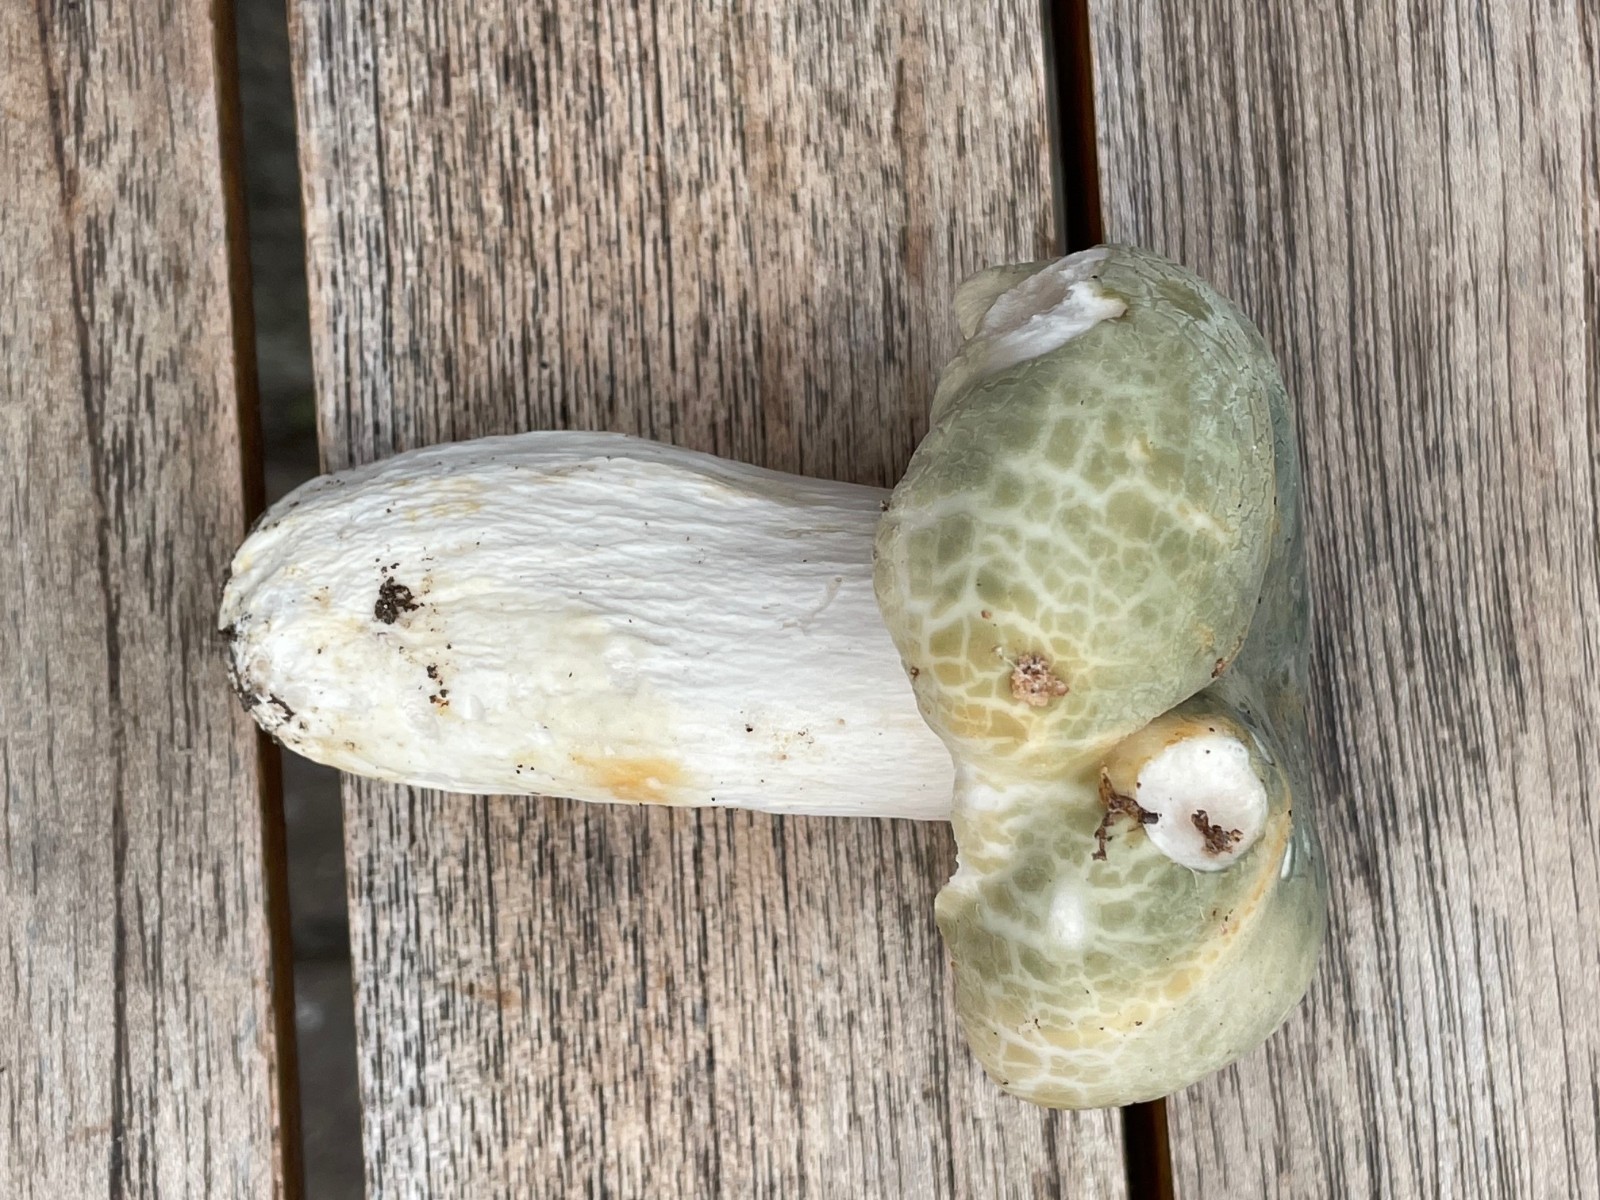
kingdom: Fungi
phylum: Basidiomycota
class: Agaricomycetes
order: Russulales
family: Russulaceae
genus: Russula
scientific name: Russula virescens
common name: spanskgrøn skørhat
